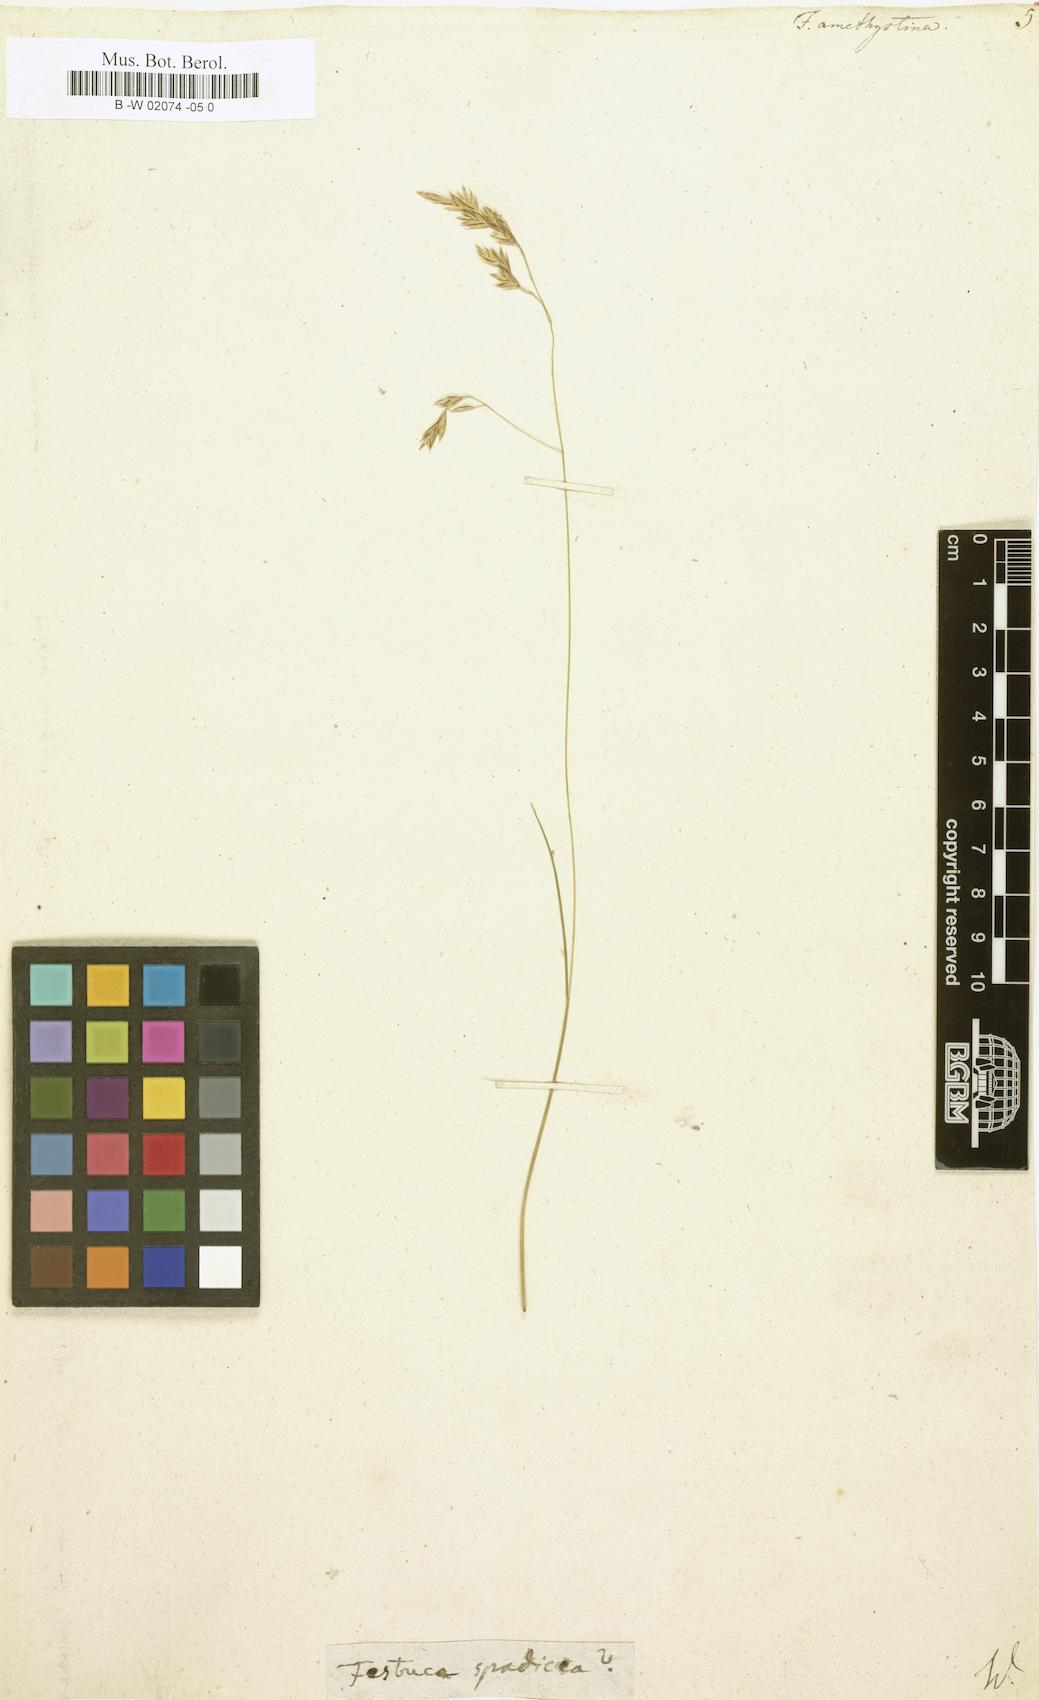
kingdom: Plantae
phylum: Tracheophyta
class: Liliopsida
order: Poales
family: Poaceae
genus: Festuca
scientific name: Festuca amethystina
